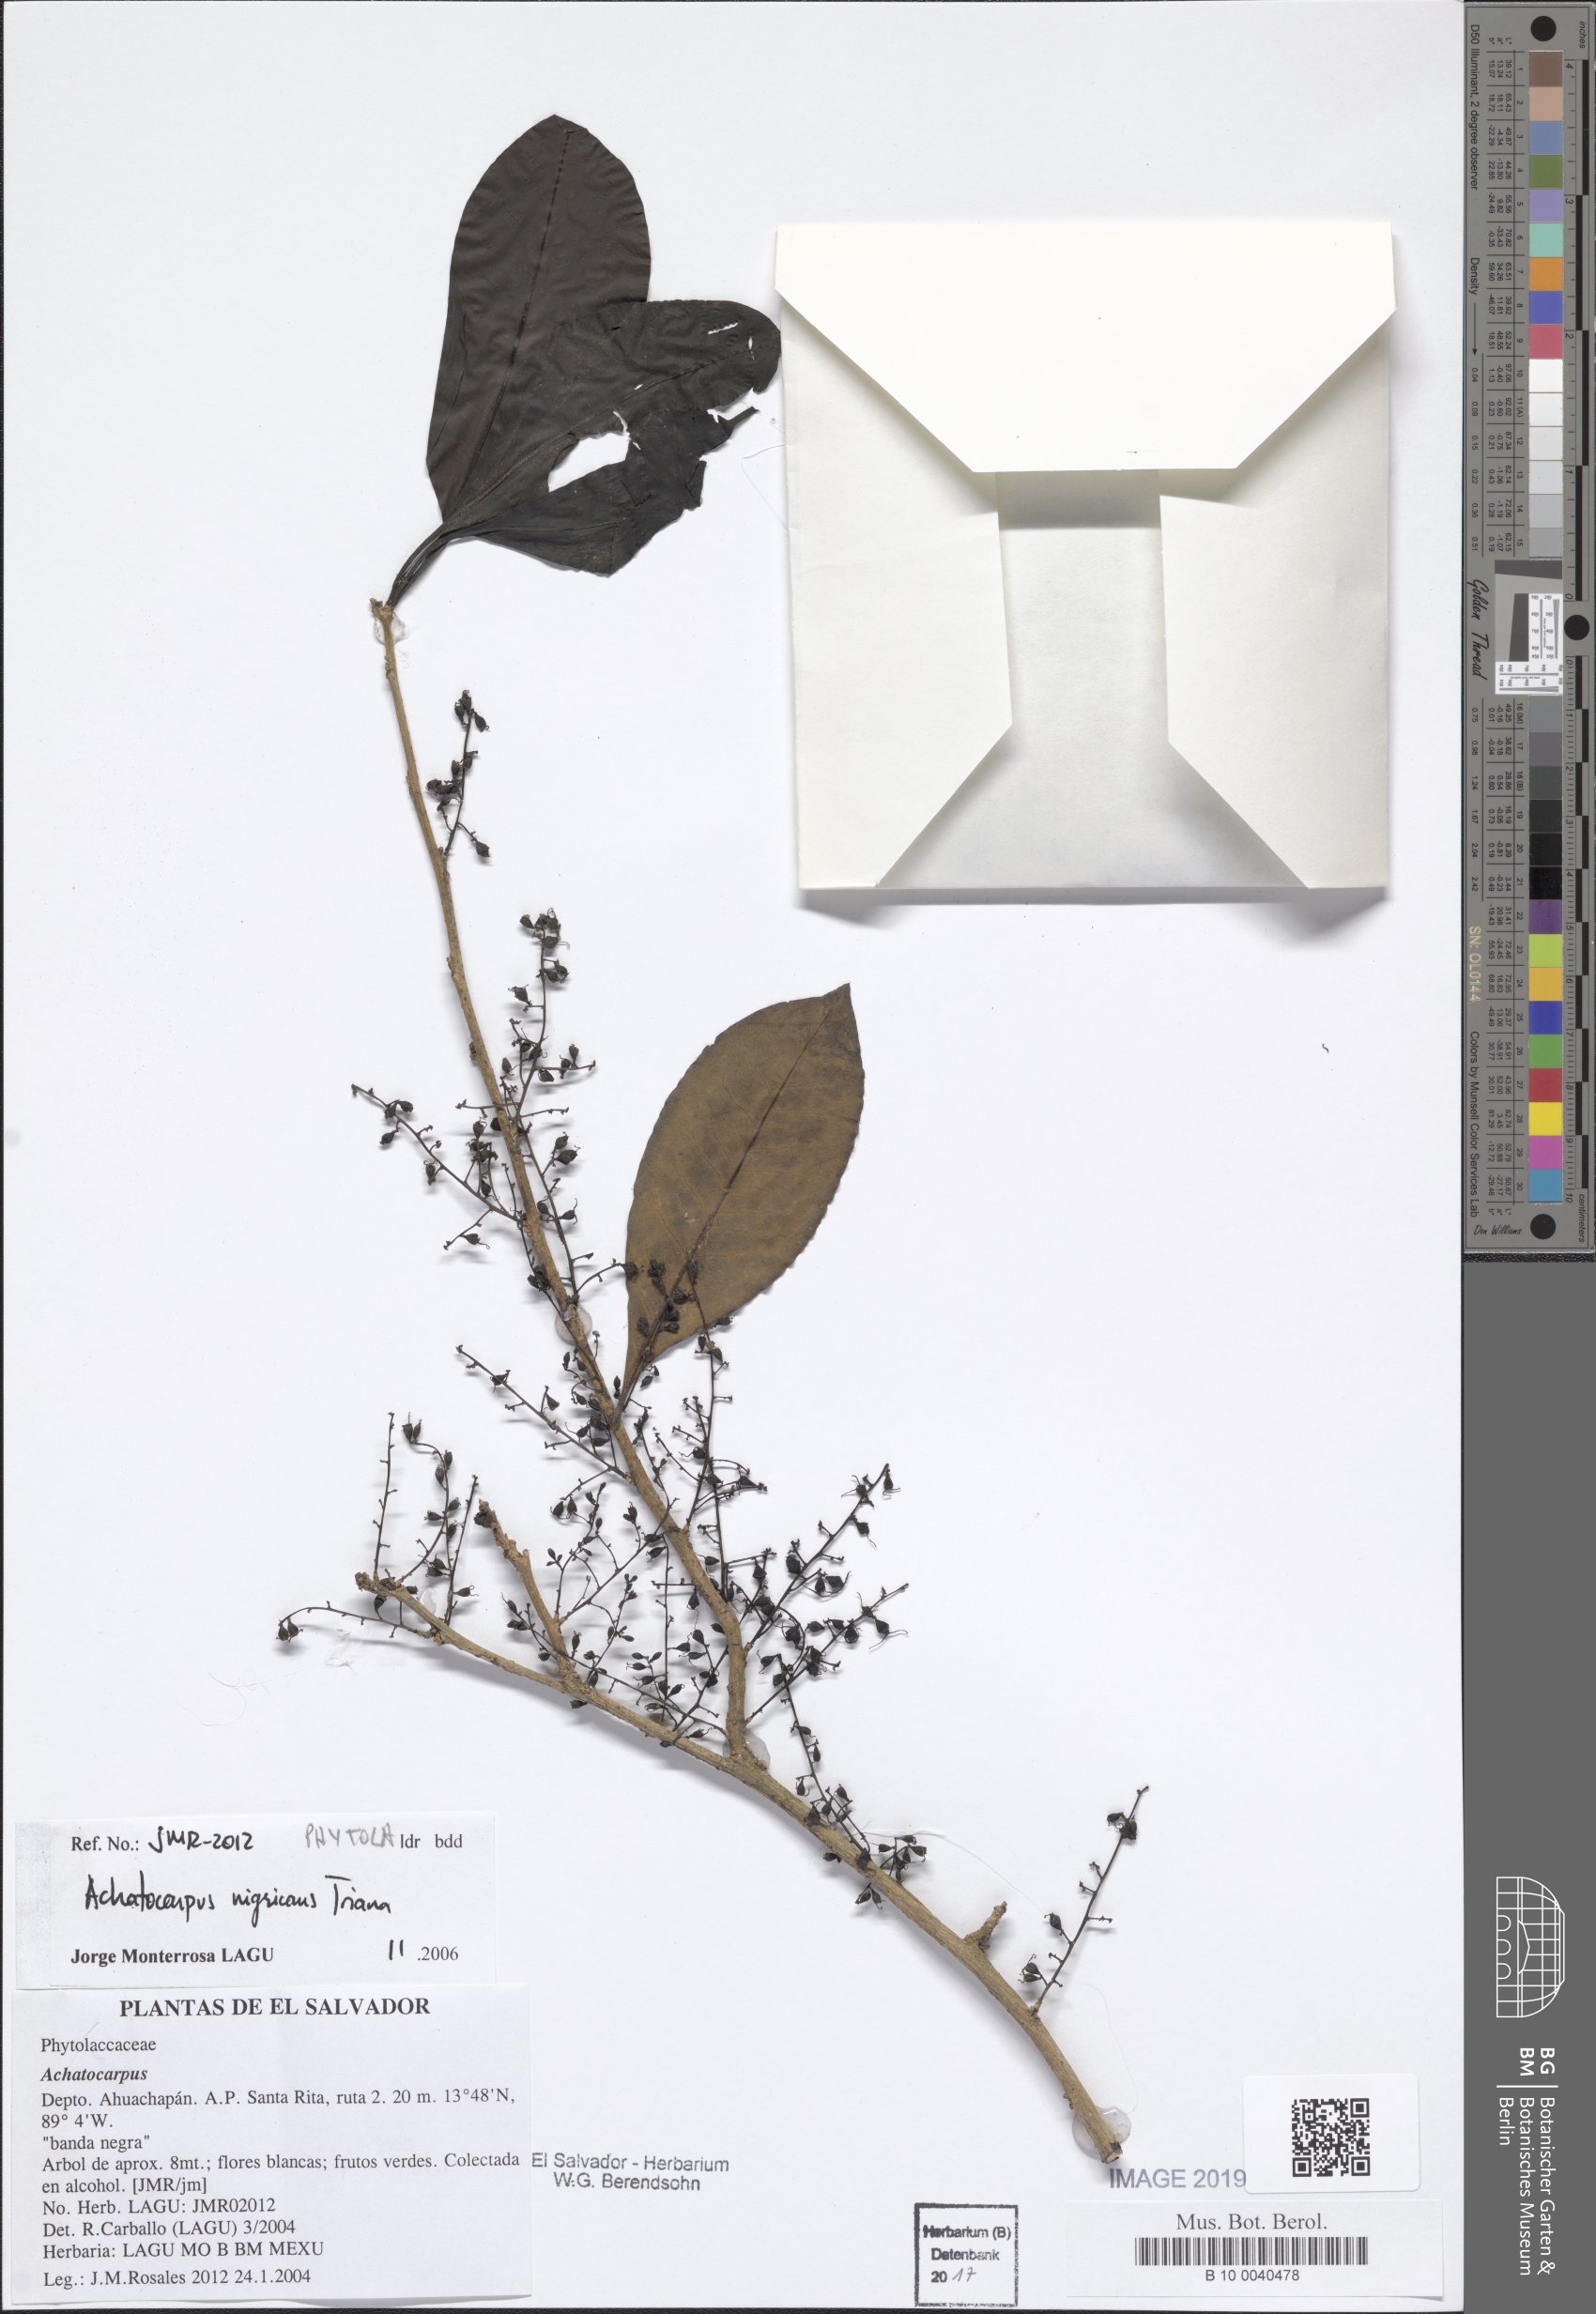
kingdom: Plantae
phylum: Tracheophyta
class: Magnoliopsida
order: Caryophyllales
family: Achatocarpaceae
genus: Achatocarpus
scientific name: Achatocarpus nigricans
